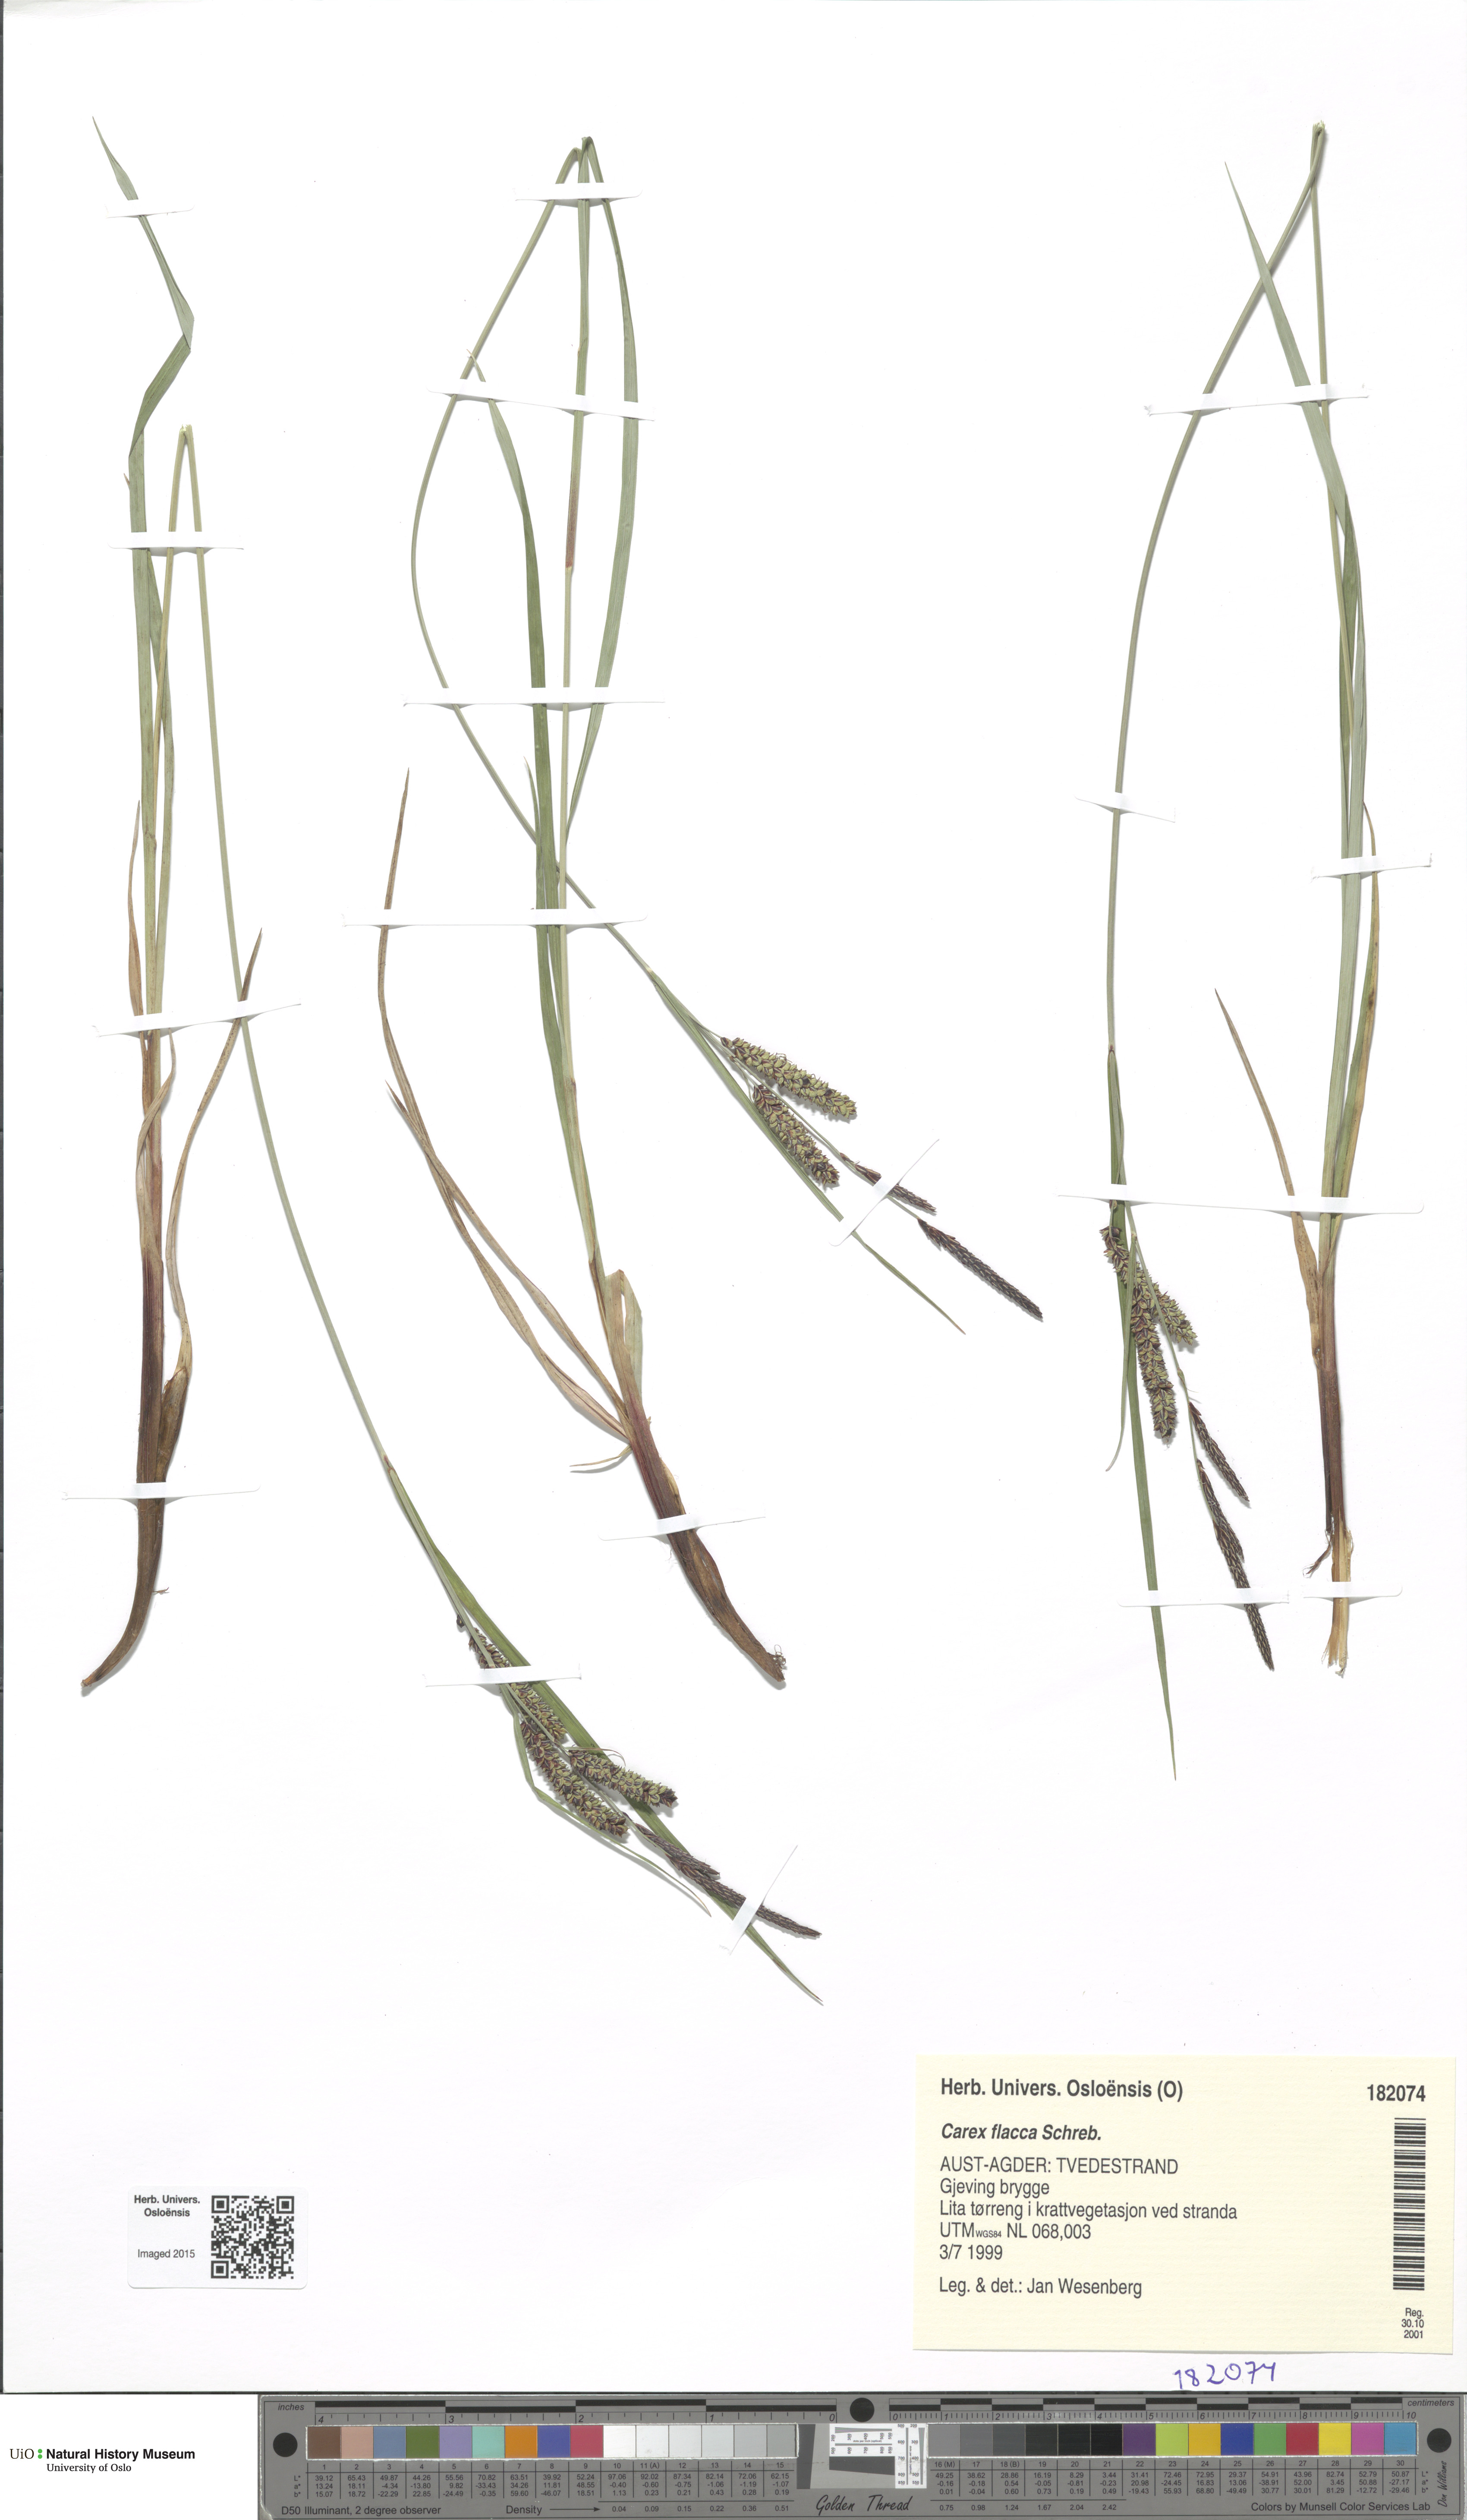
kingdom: Plantae
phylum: Tracheophyta
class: Liliopsida
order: Poales
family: Cyperaceae
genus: Carex
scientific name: Carex flacca
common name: Glaucous sedge
